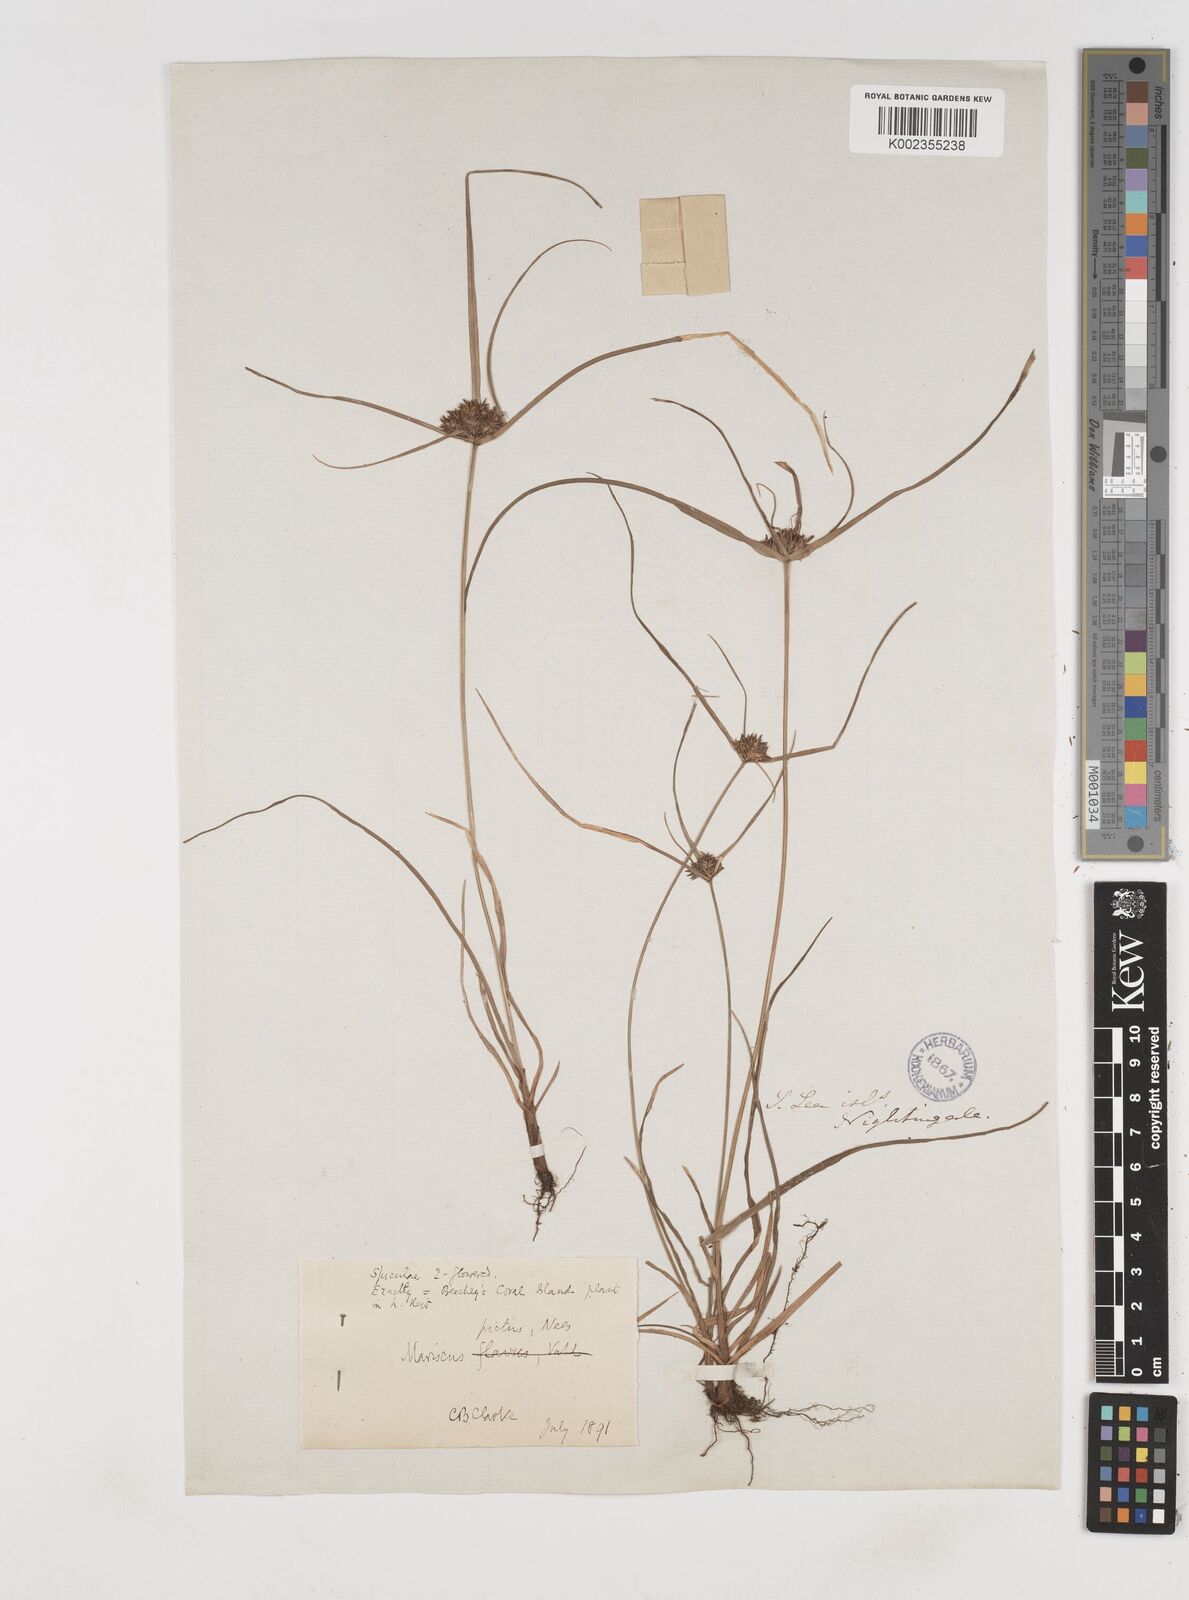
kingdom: Plantae
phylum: Tracheophyta
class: Liliopsida
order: Poales
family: Cyperaceae
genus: Cyperus
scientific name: Cyperus cyperinus
